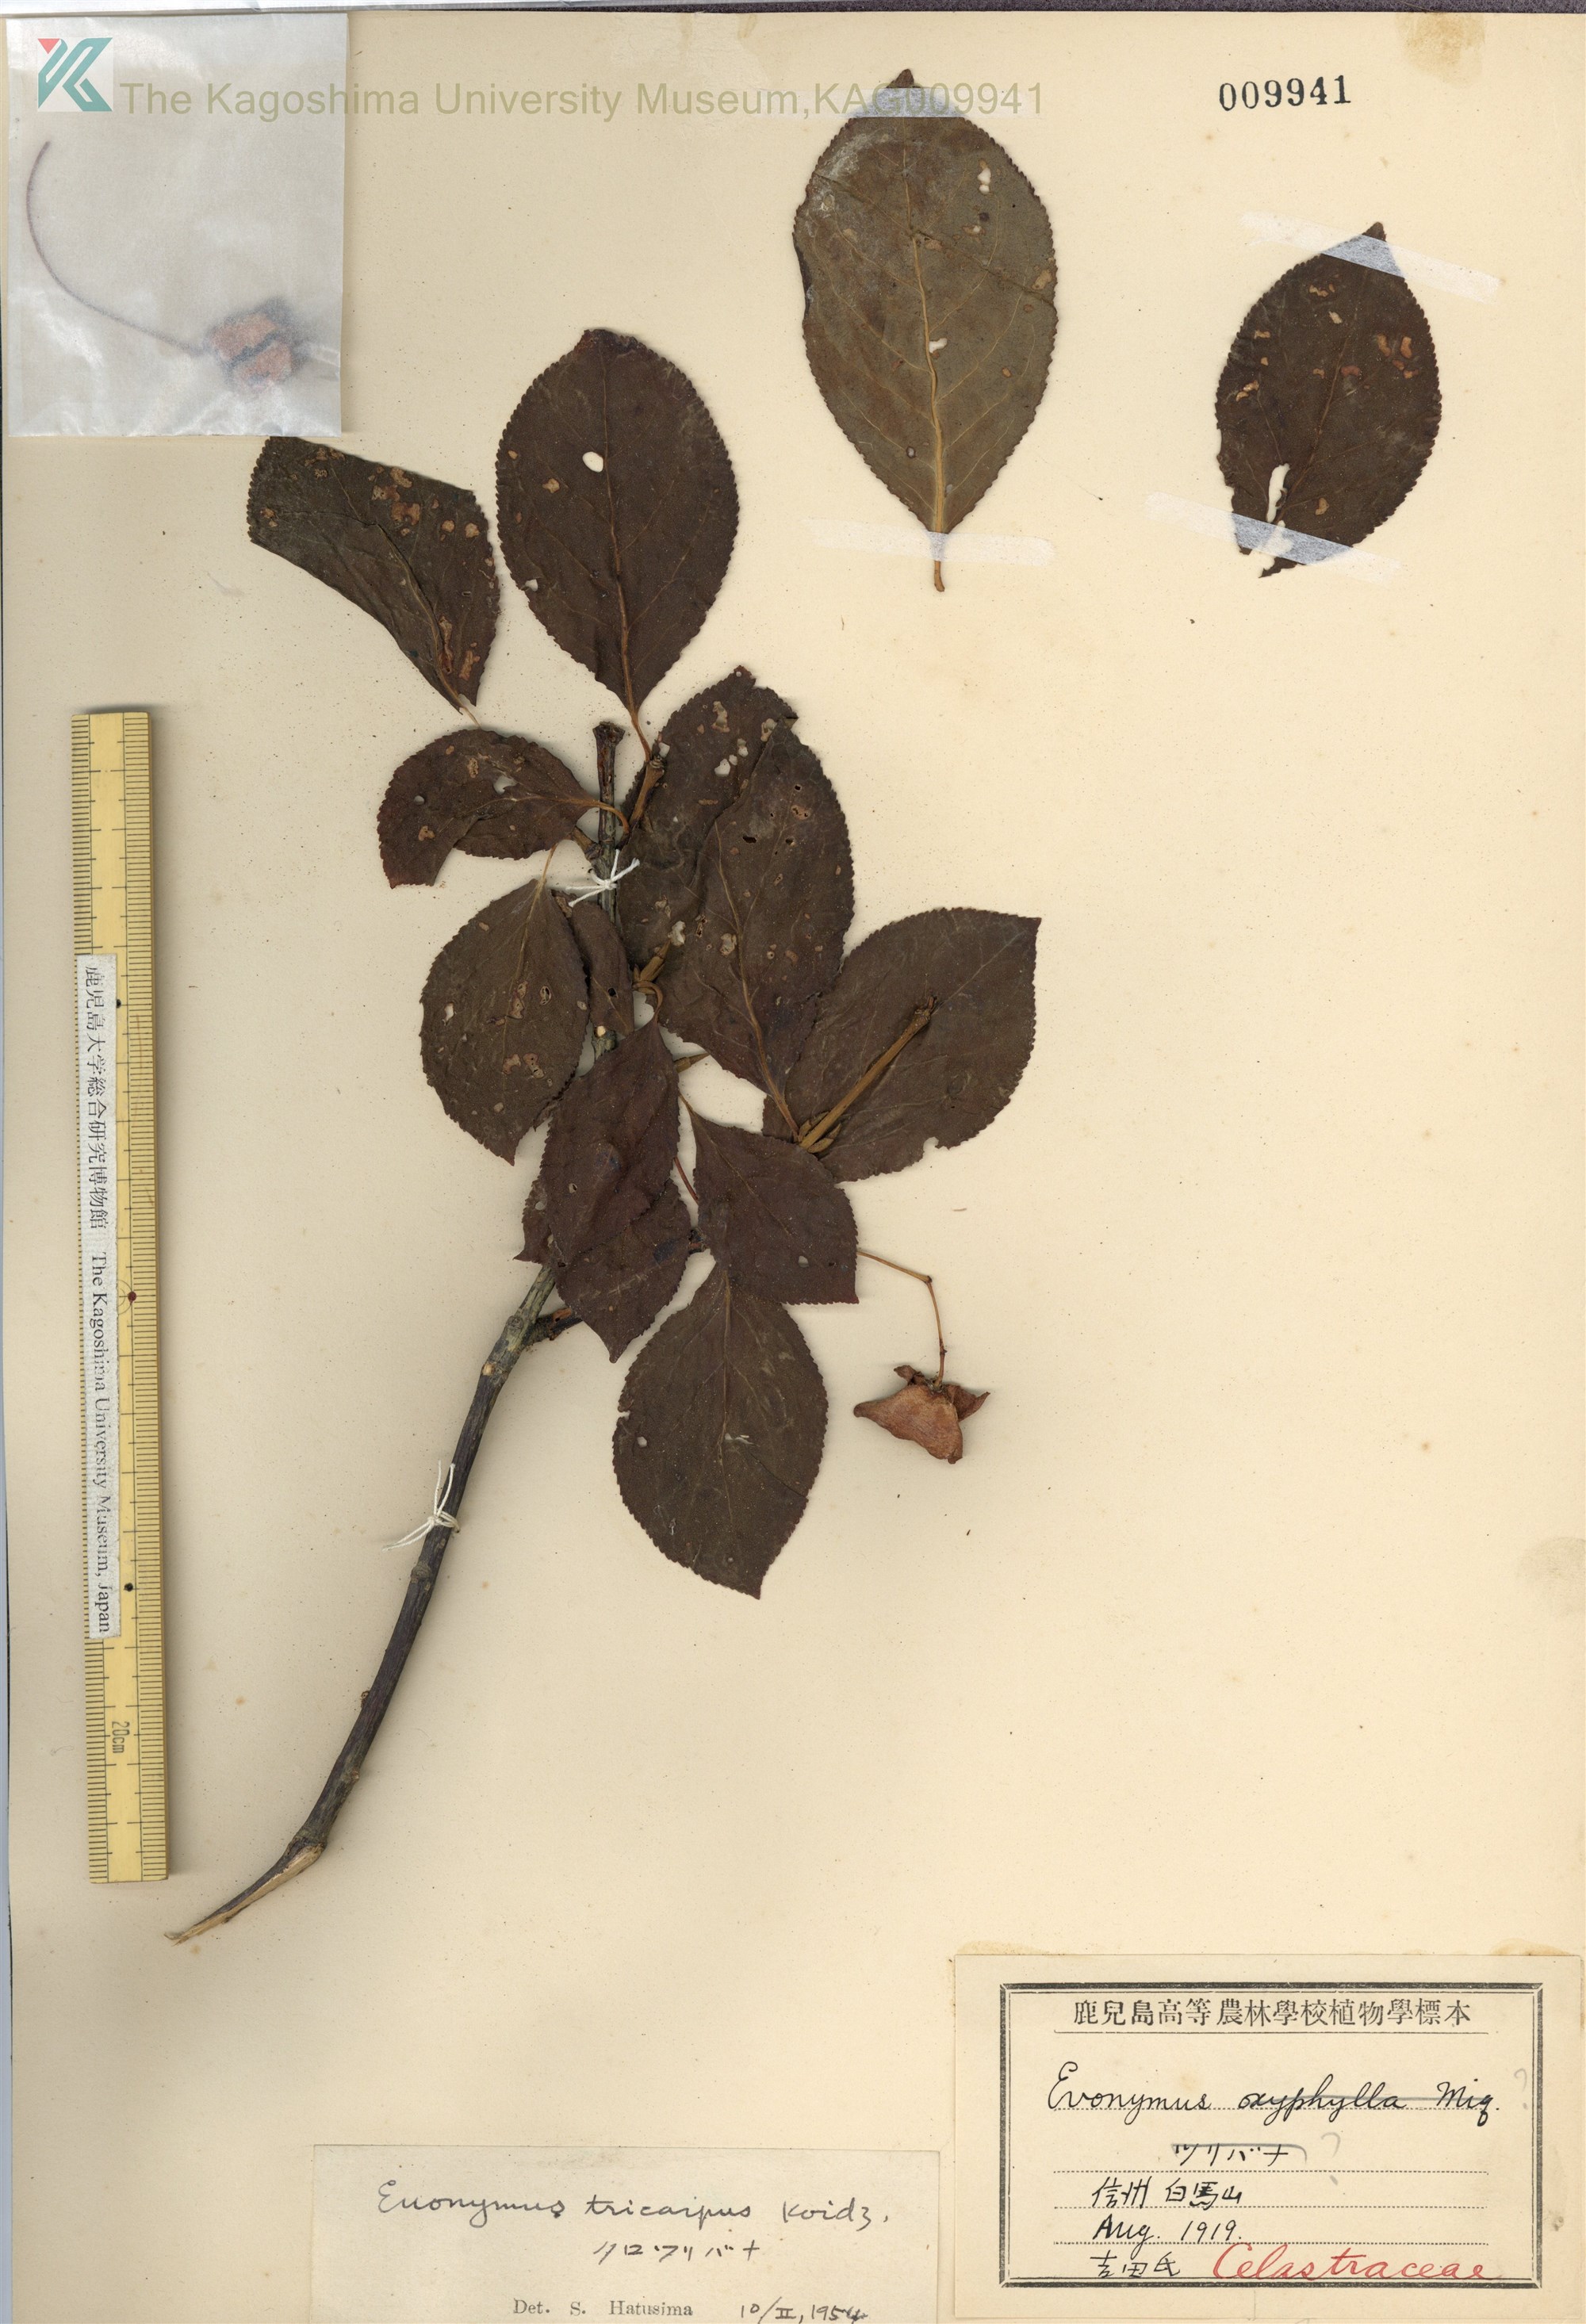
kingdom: Plantae
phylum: Tracheophyta
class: Magnoliopsida
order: Celastrales
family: Celastraceae
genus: Euonymus
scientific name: Euonymus sachalinensis
